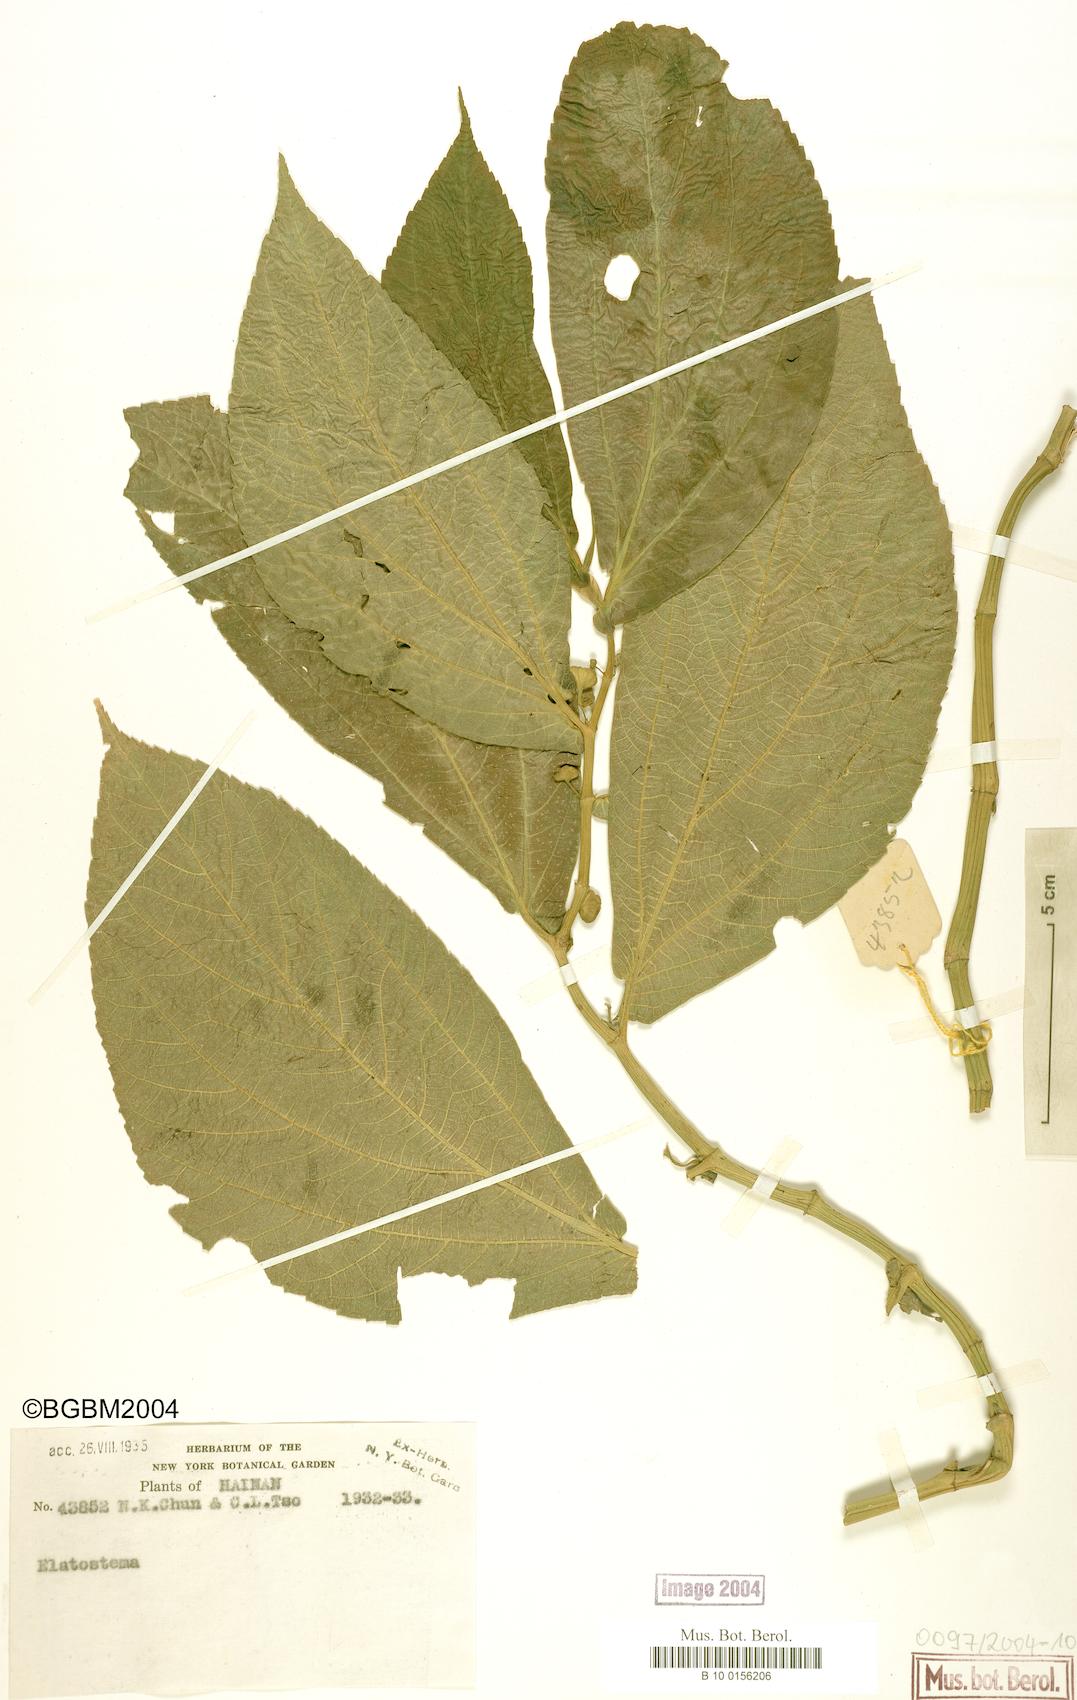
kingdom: Plantae
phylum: Tracheophyta
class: Magnoliopsida
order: Rosales
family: Urticaceae
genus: Elatostema
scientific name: Elatostema
